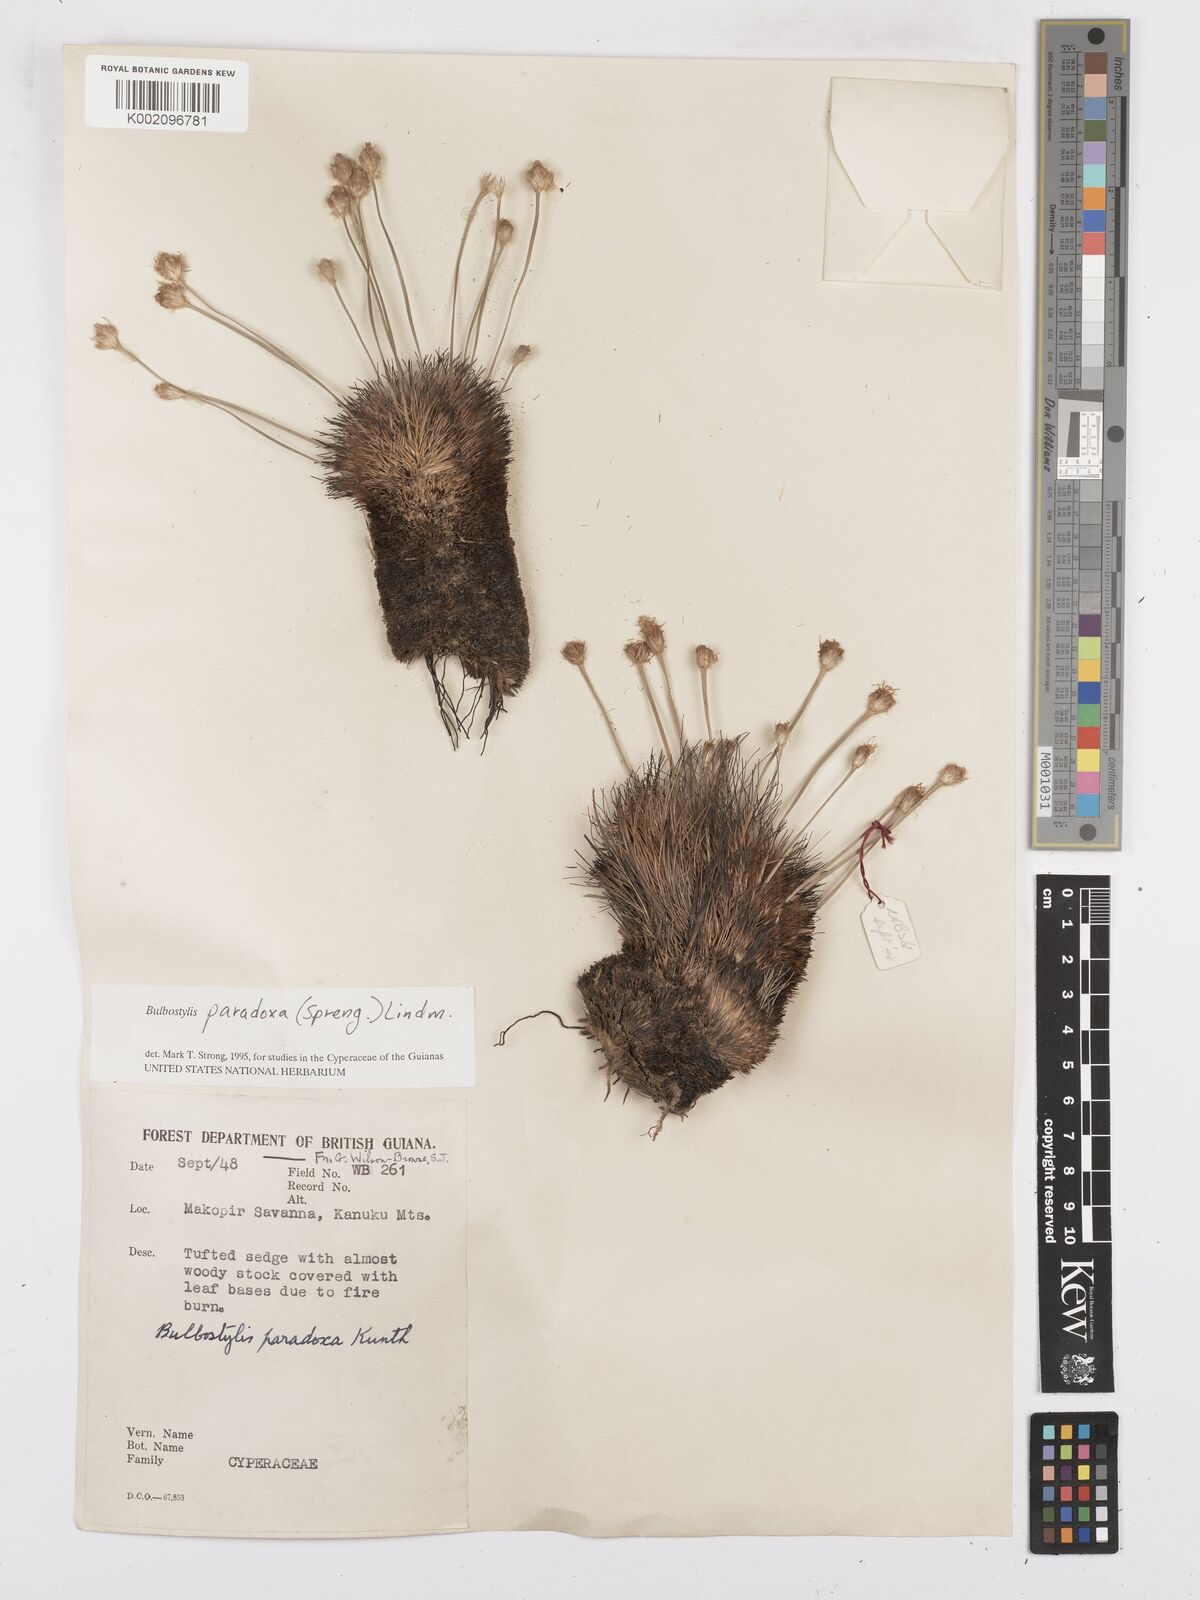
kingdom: Plantae
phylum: Tracheophyta
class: Liliopsida
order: Poales
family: Cyperaceae
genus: Bulbostylis
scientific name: Bulbostylis paradoxa
